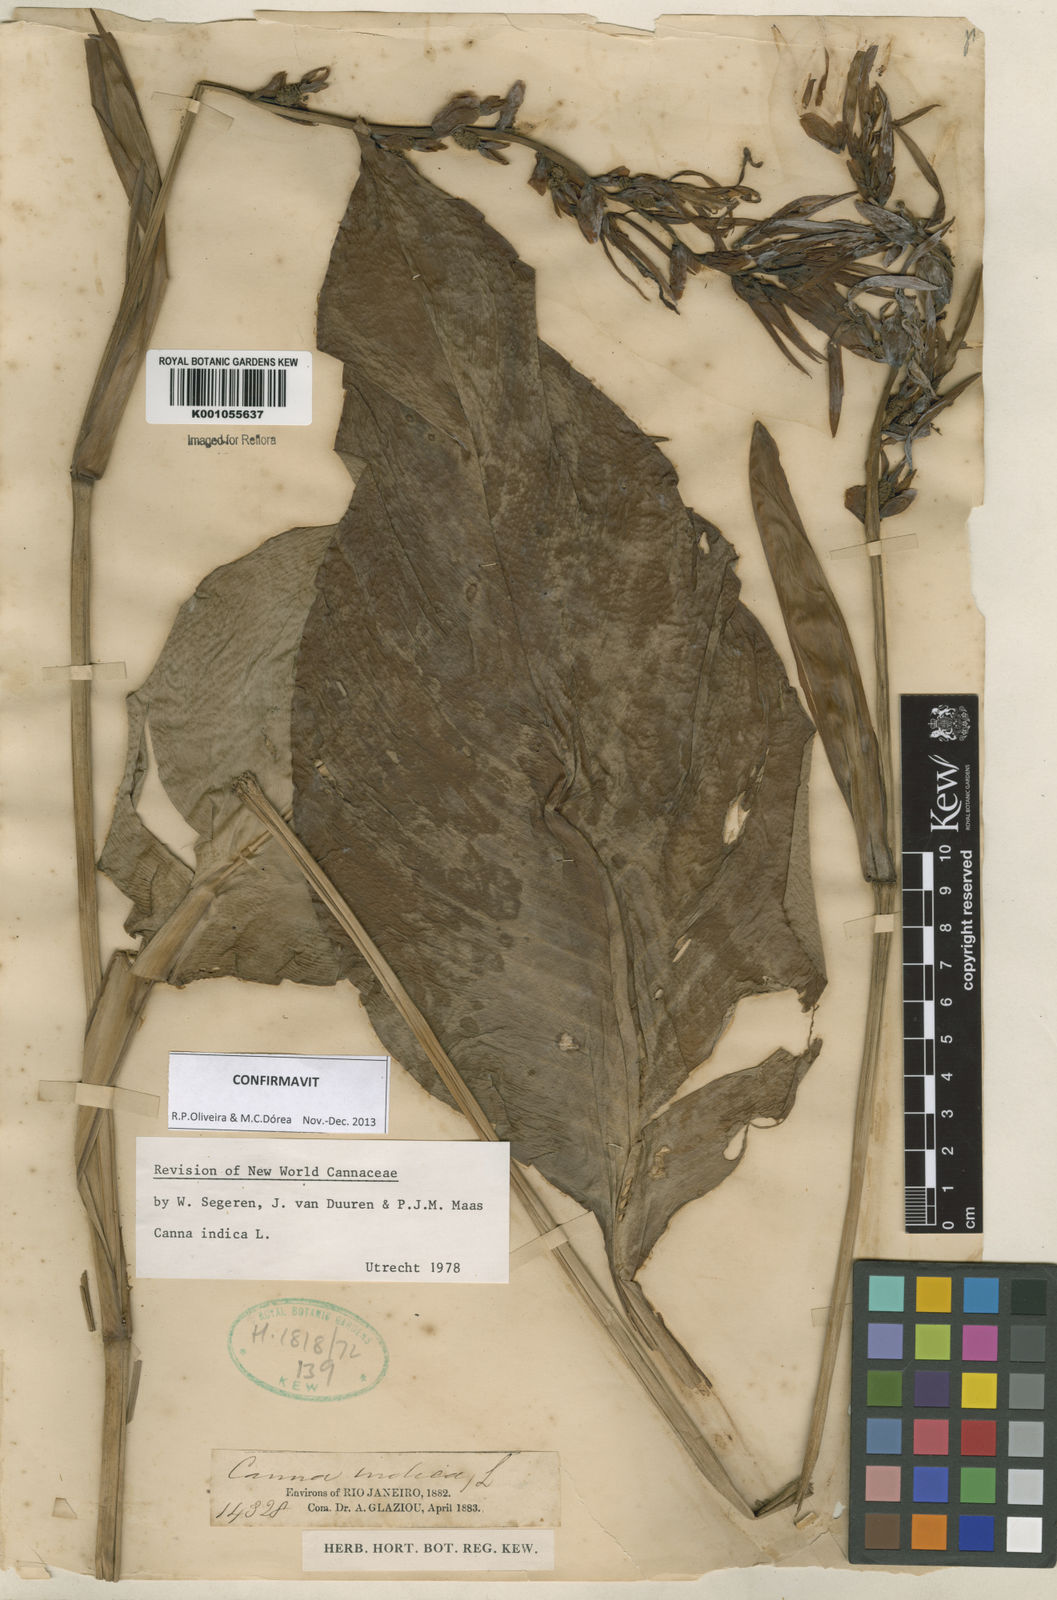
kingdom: Plantae
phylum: Tracheophyta
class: Liliopsida
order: Zingiberales
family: Cannaceae
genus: Canna
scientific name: Canna indica
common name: Indian shot
